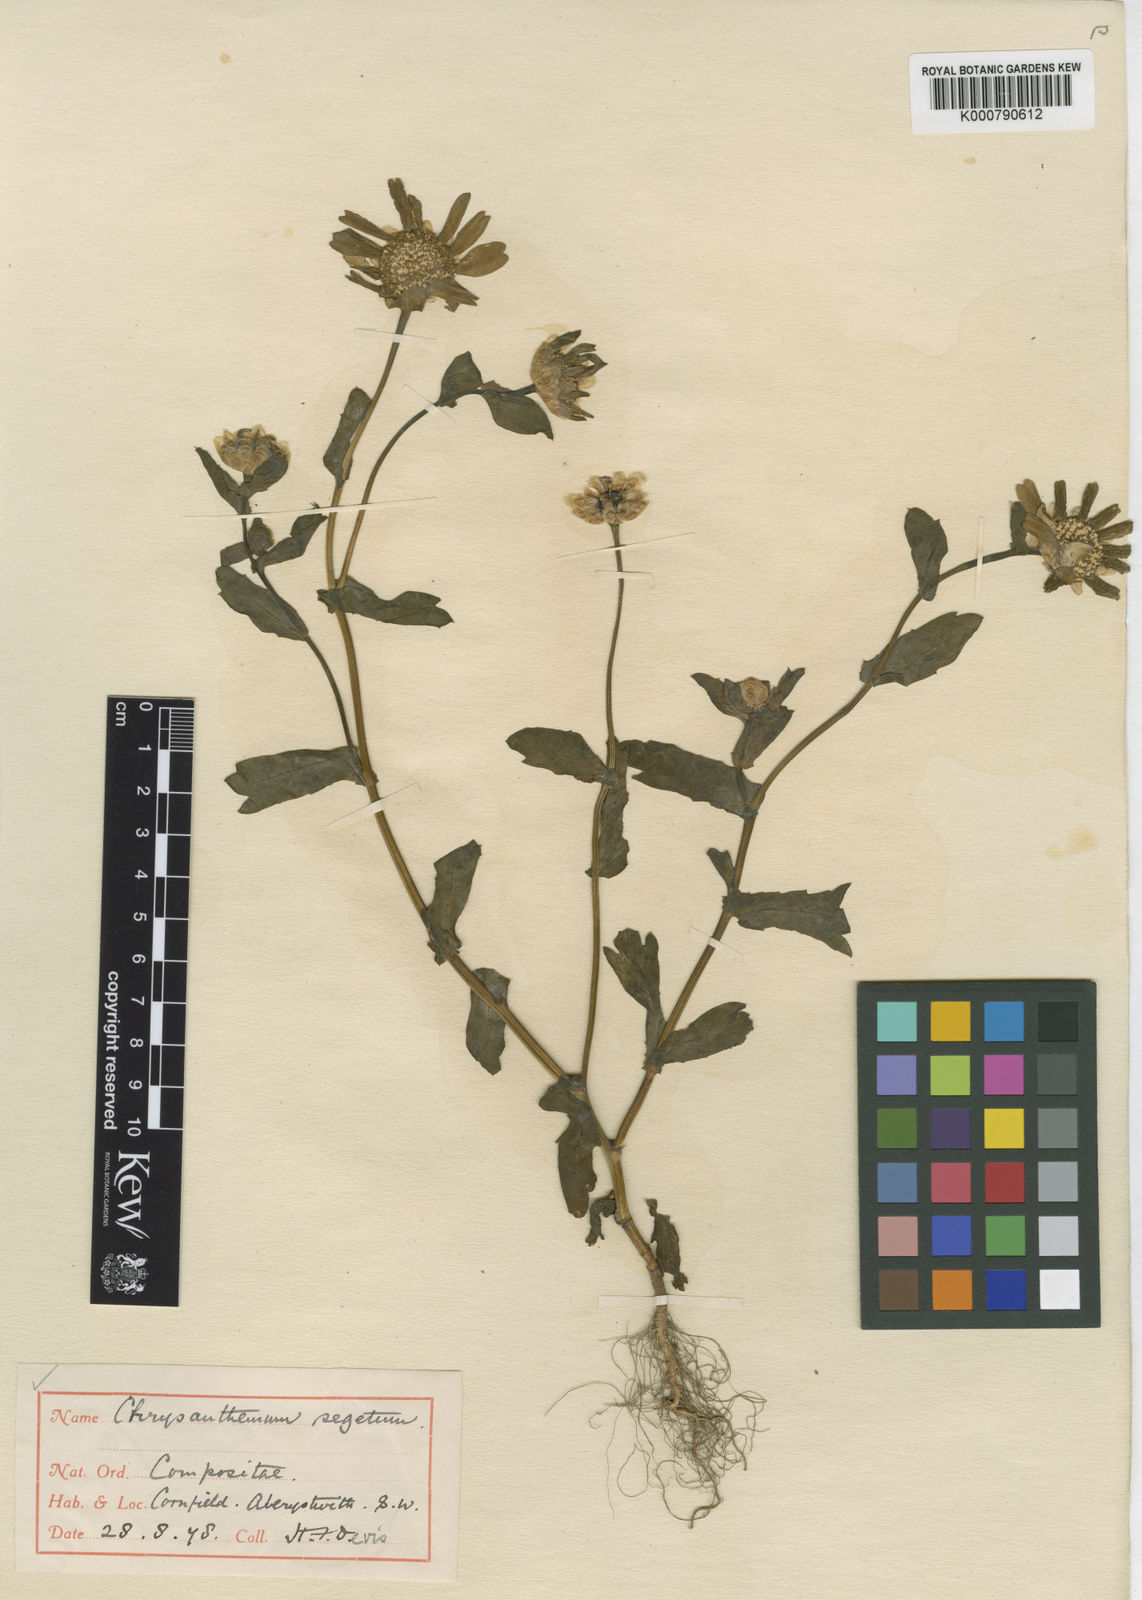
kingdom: Plantae
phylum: Tracheophyta
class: Magnoliopsida
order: Asterales
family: Asteraceae
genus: Glebionis
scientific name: Glebionis
